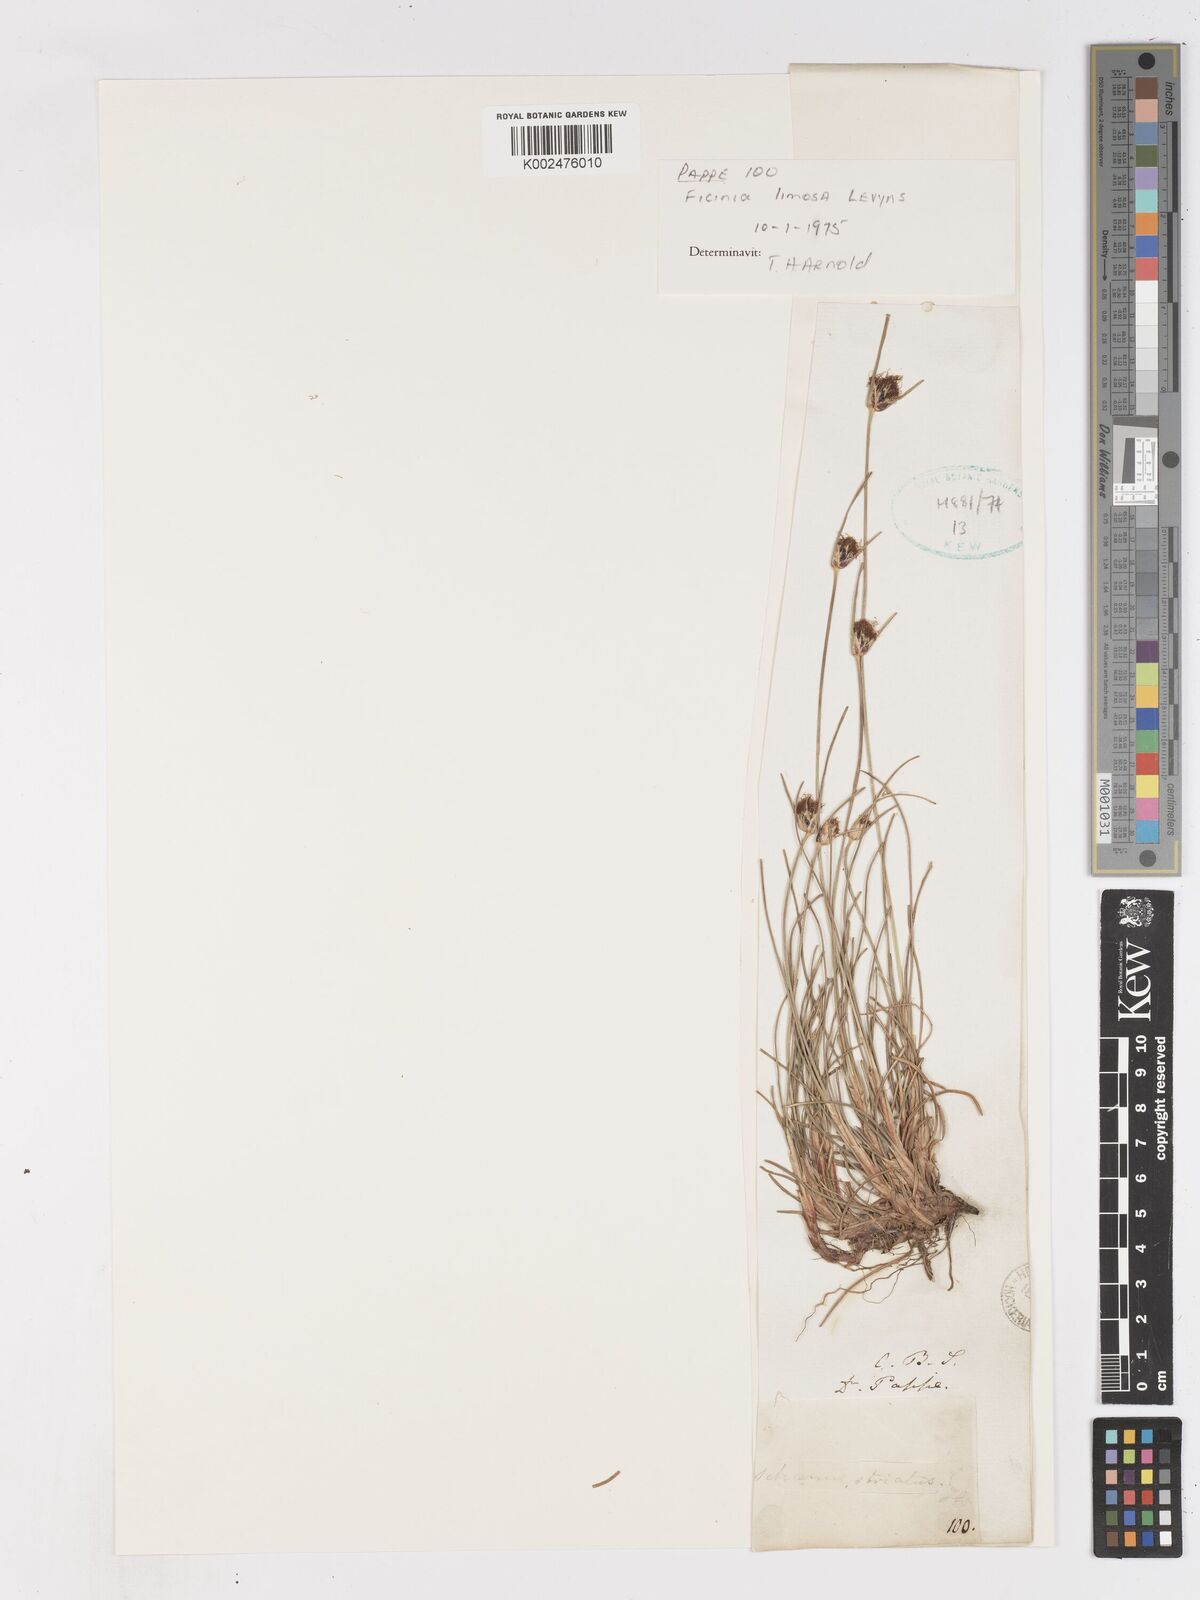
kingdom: Plantae
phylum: Tracheophyta
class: Liliopsida
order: Poales
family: Cyperaceae
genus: Ficinia
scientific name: Ficinia indica
